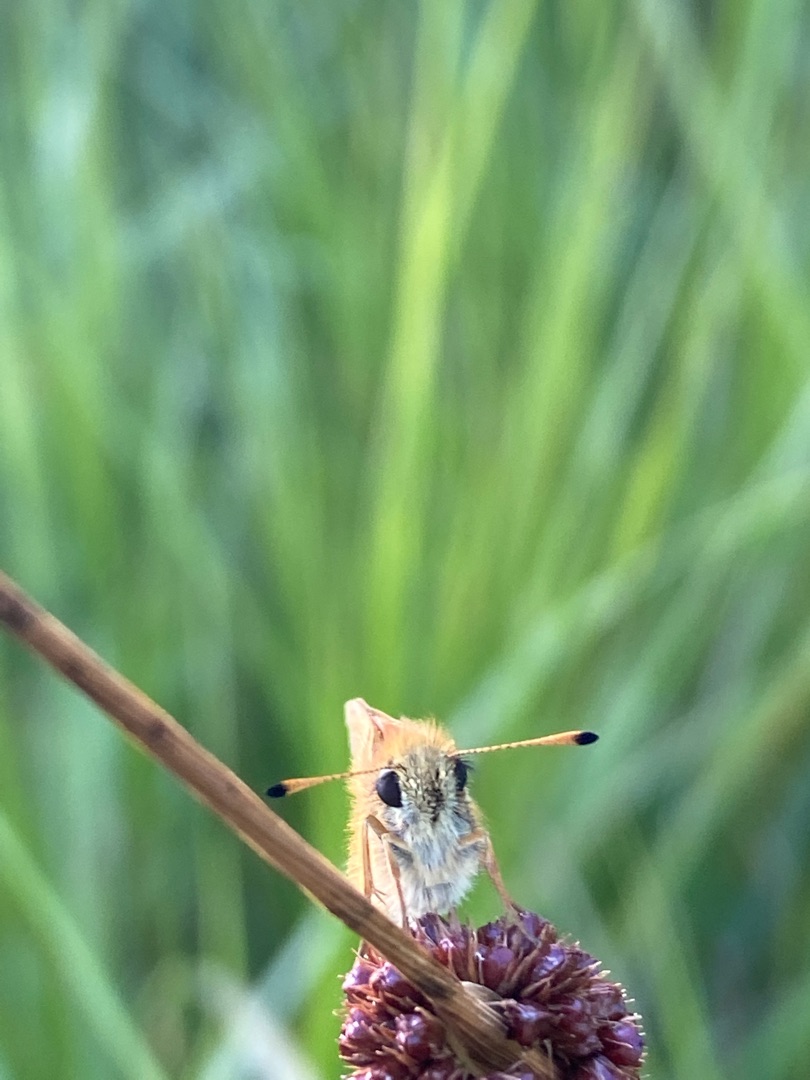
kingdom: Animalia
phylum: Arthropoda
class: Insecta
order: Lepidoptera
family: Hesperiidae
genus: Thymelicus
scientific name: Thymelicus lineola
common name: Stregbredpande
